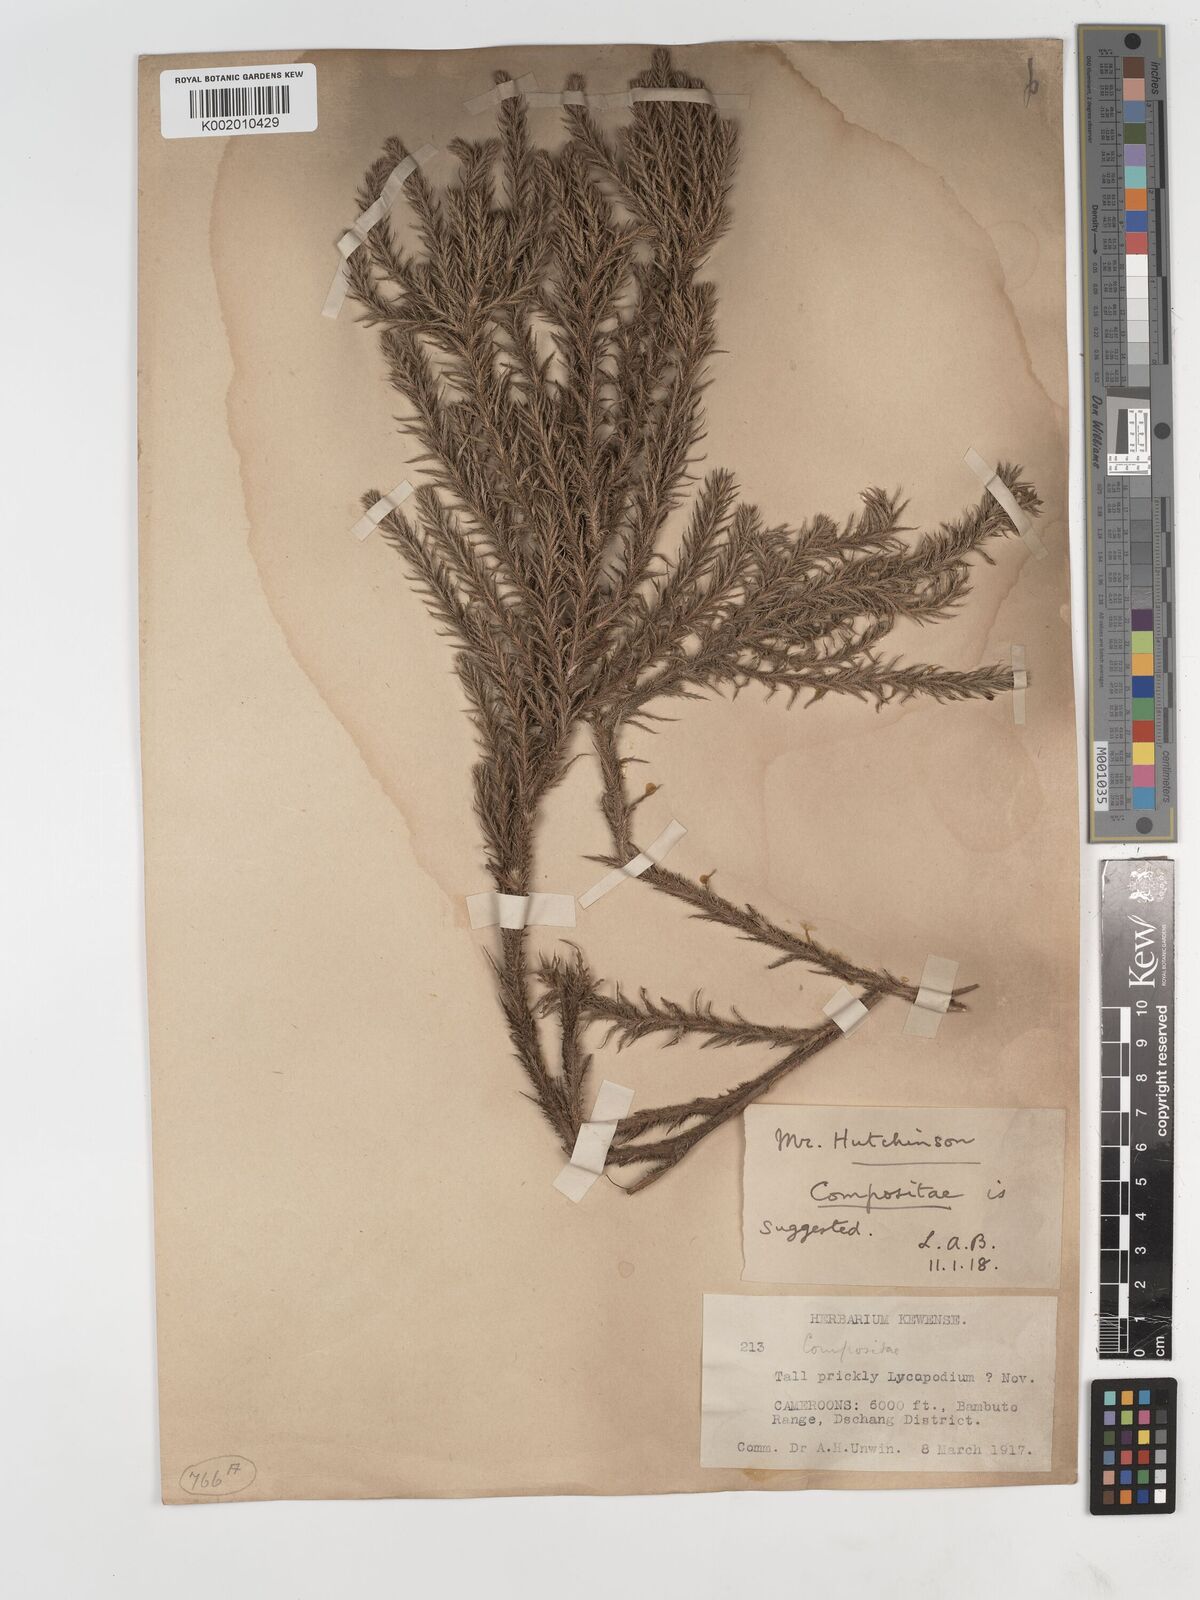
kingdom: Plantae
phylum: Tracheophyta
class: Magnoliopsida
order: Asterales
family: Asteraceae
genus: Echinops
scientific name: Echinops gracilis
